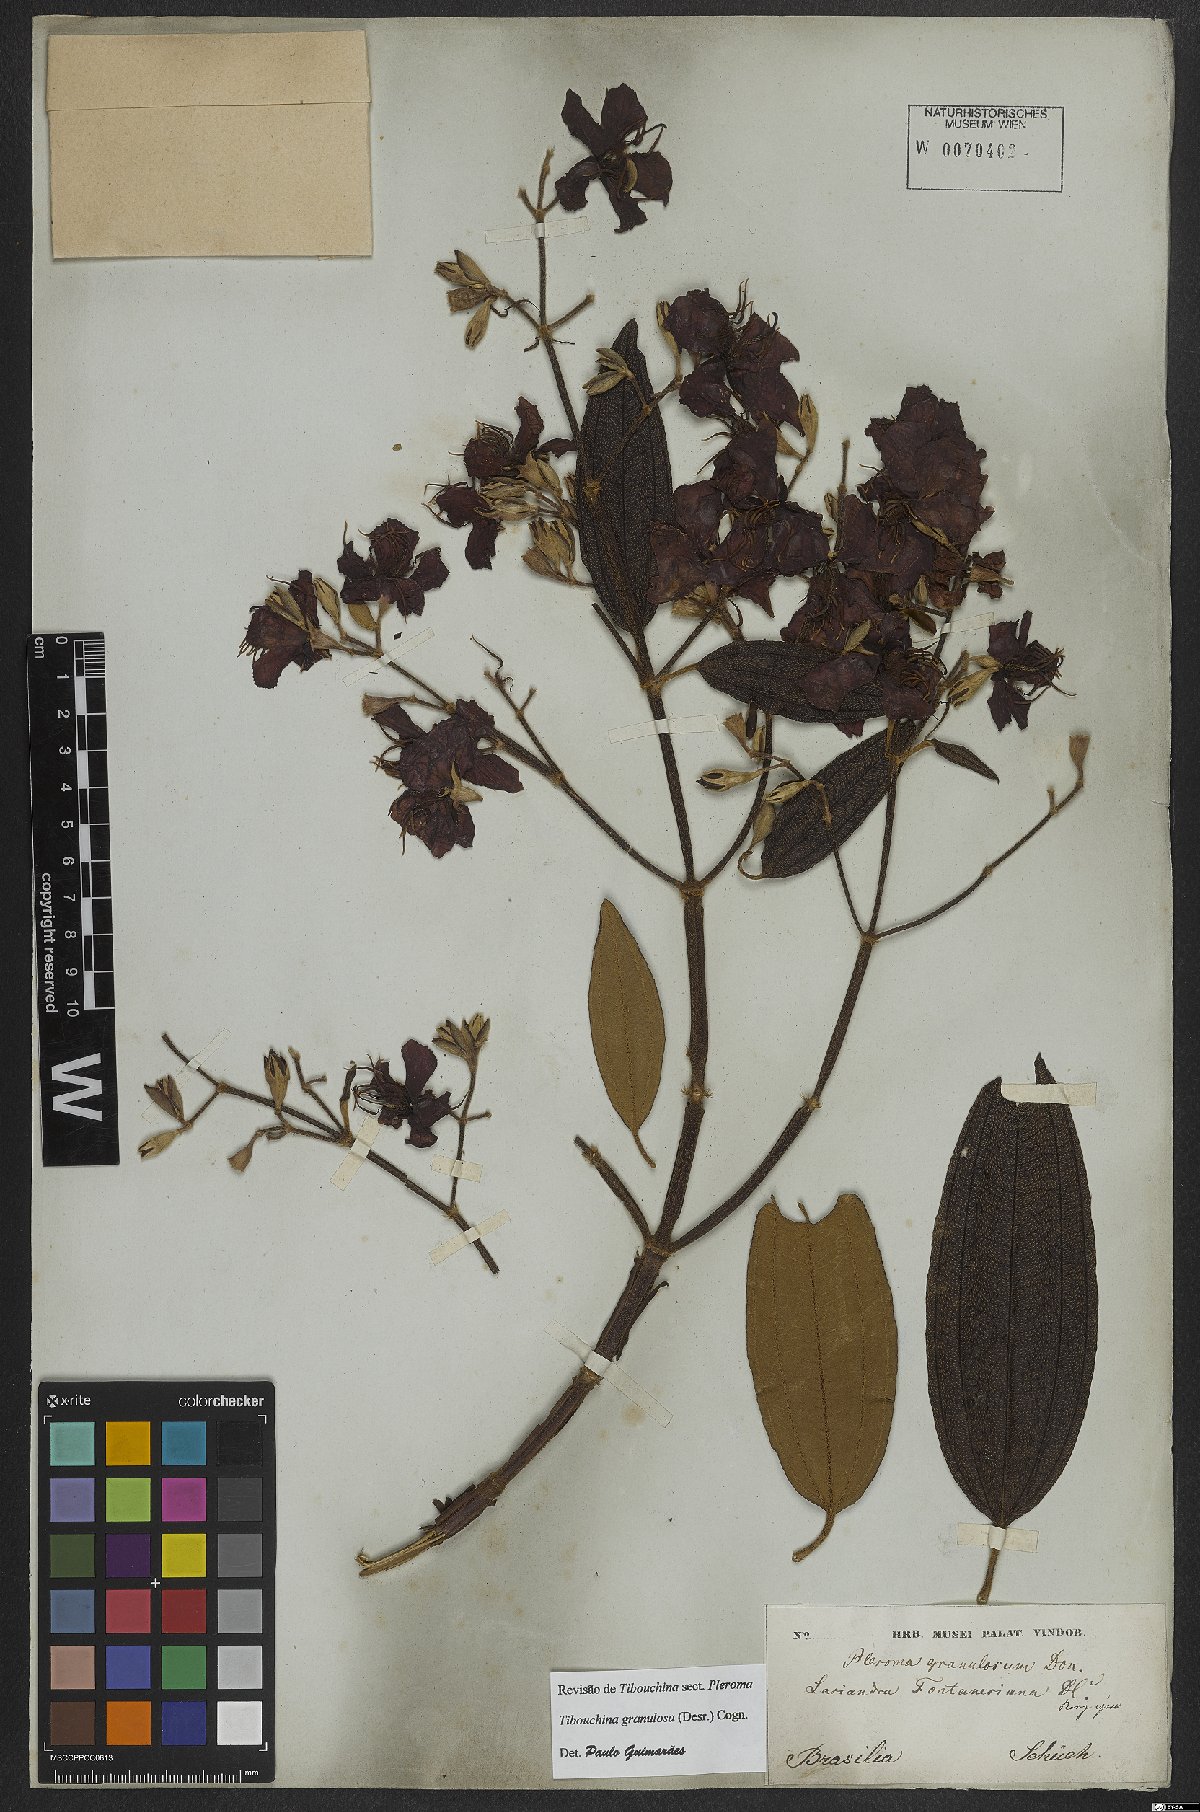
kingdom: Plantae
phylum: Tracheophyta
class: Magnoliopsida
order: Myrtales
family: Melastomataceae
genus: Pleroma
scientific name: Pleroma granulosum
